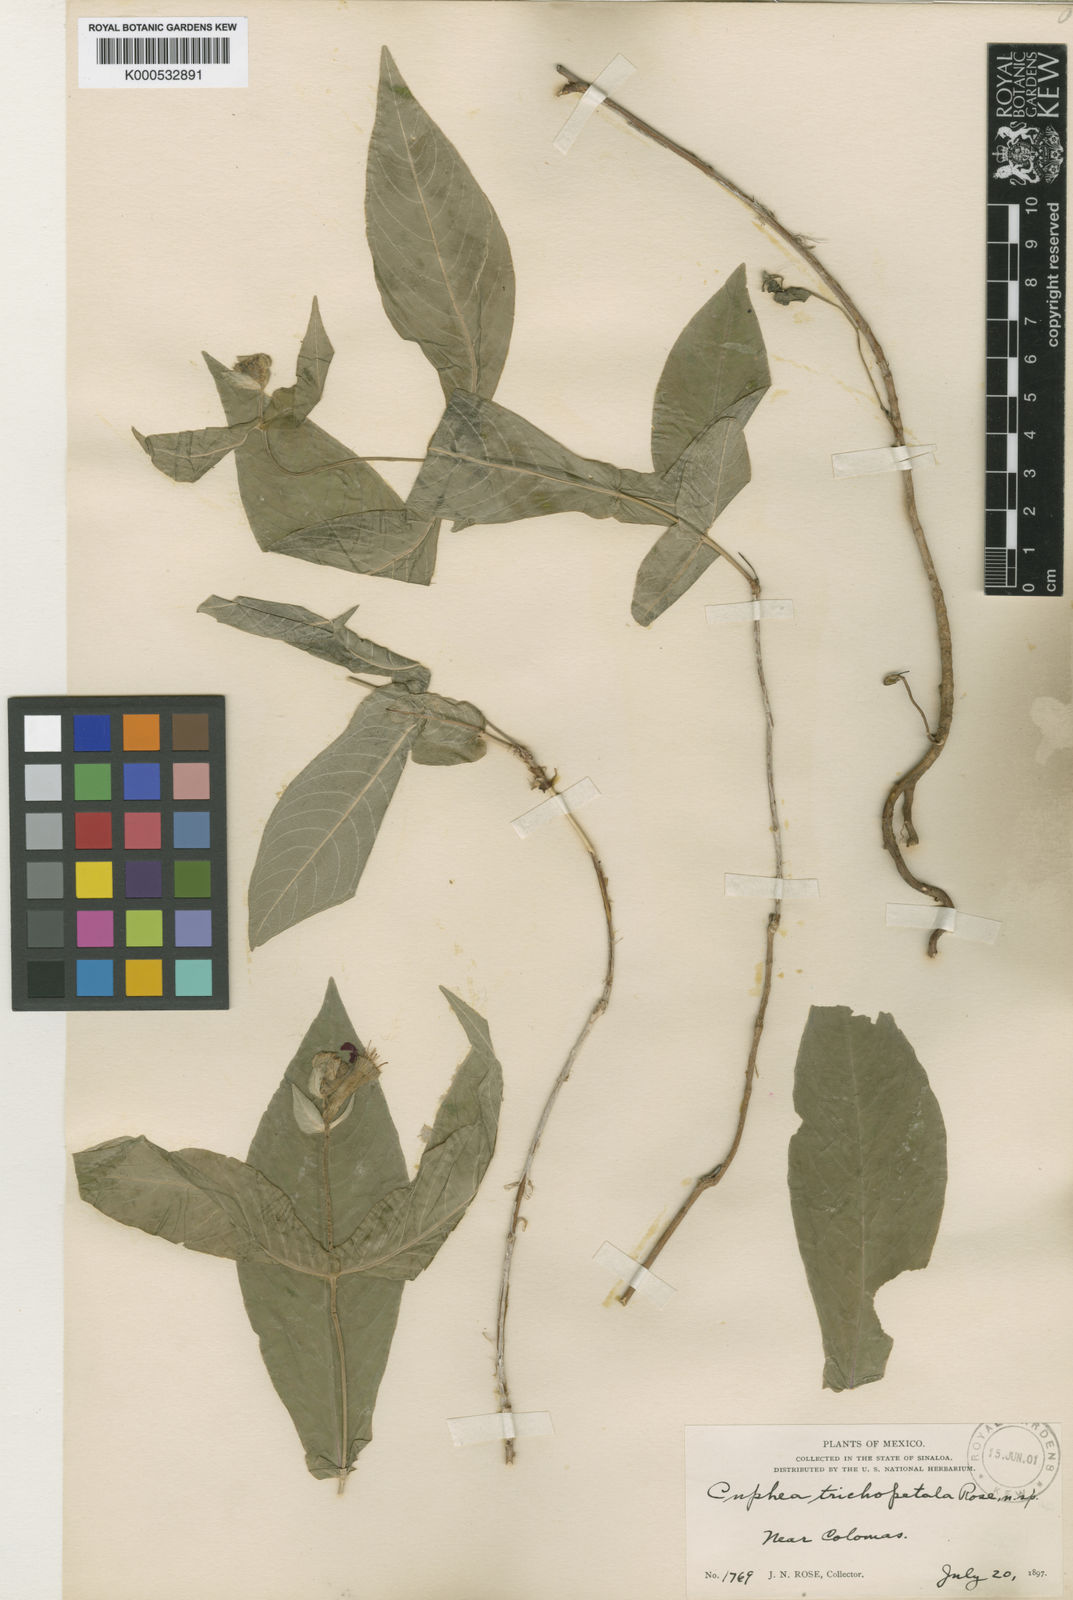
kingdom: Plantae
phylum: Tracheophyta
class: Magnoliopsida
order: Myrtales
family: Lythraceae
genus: Cuphea
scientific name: Cuphea roseana
